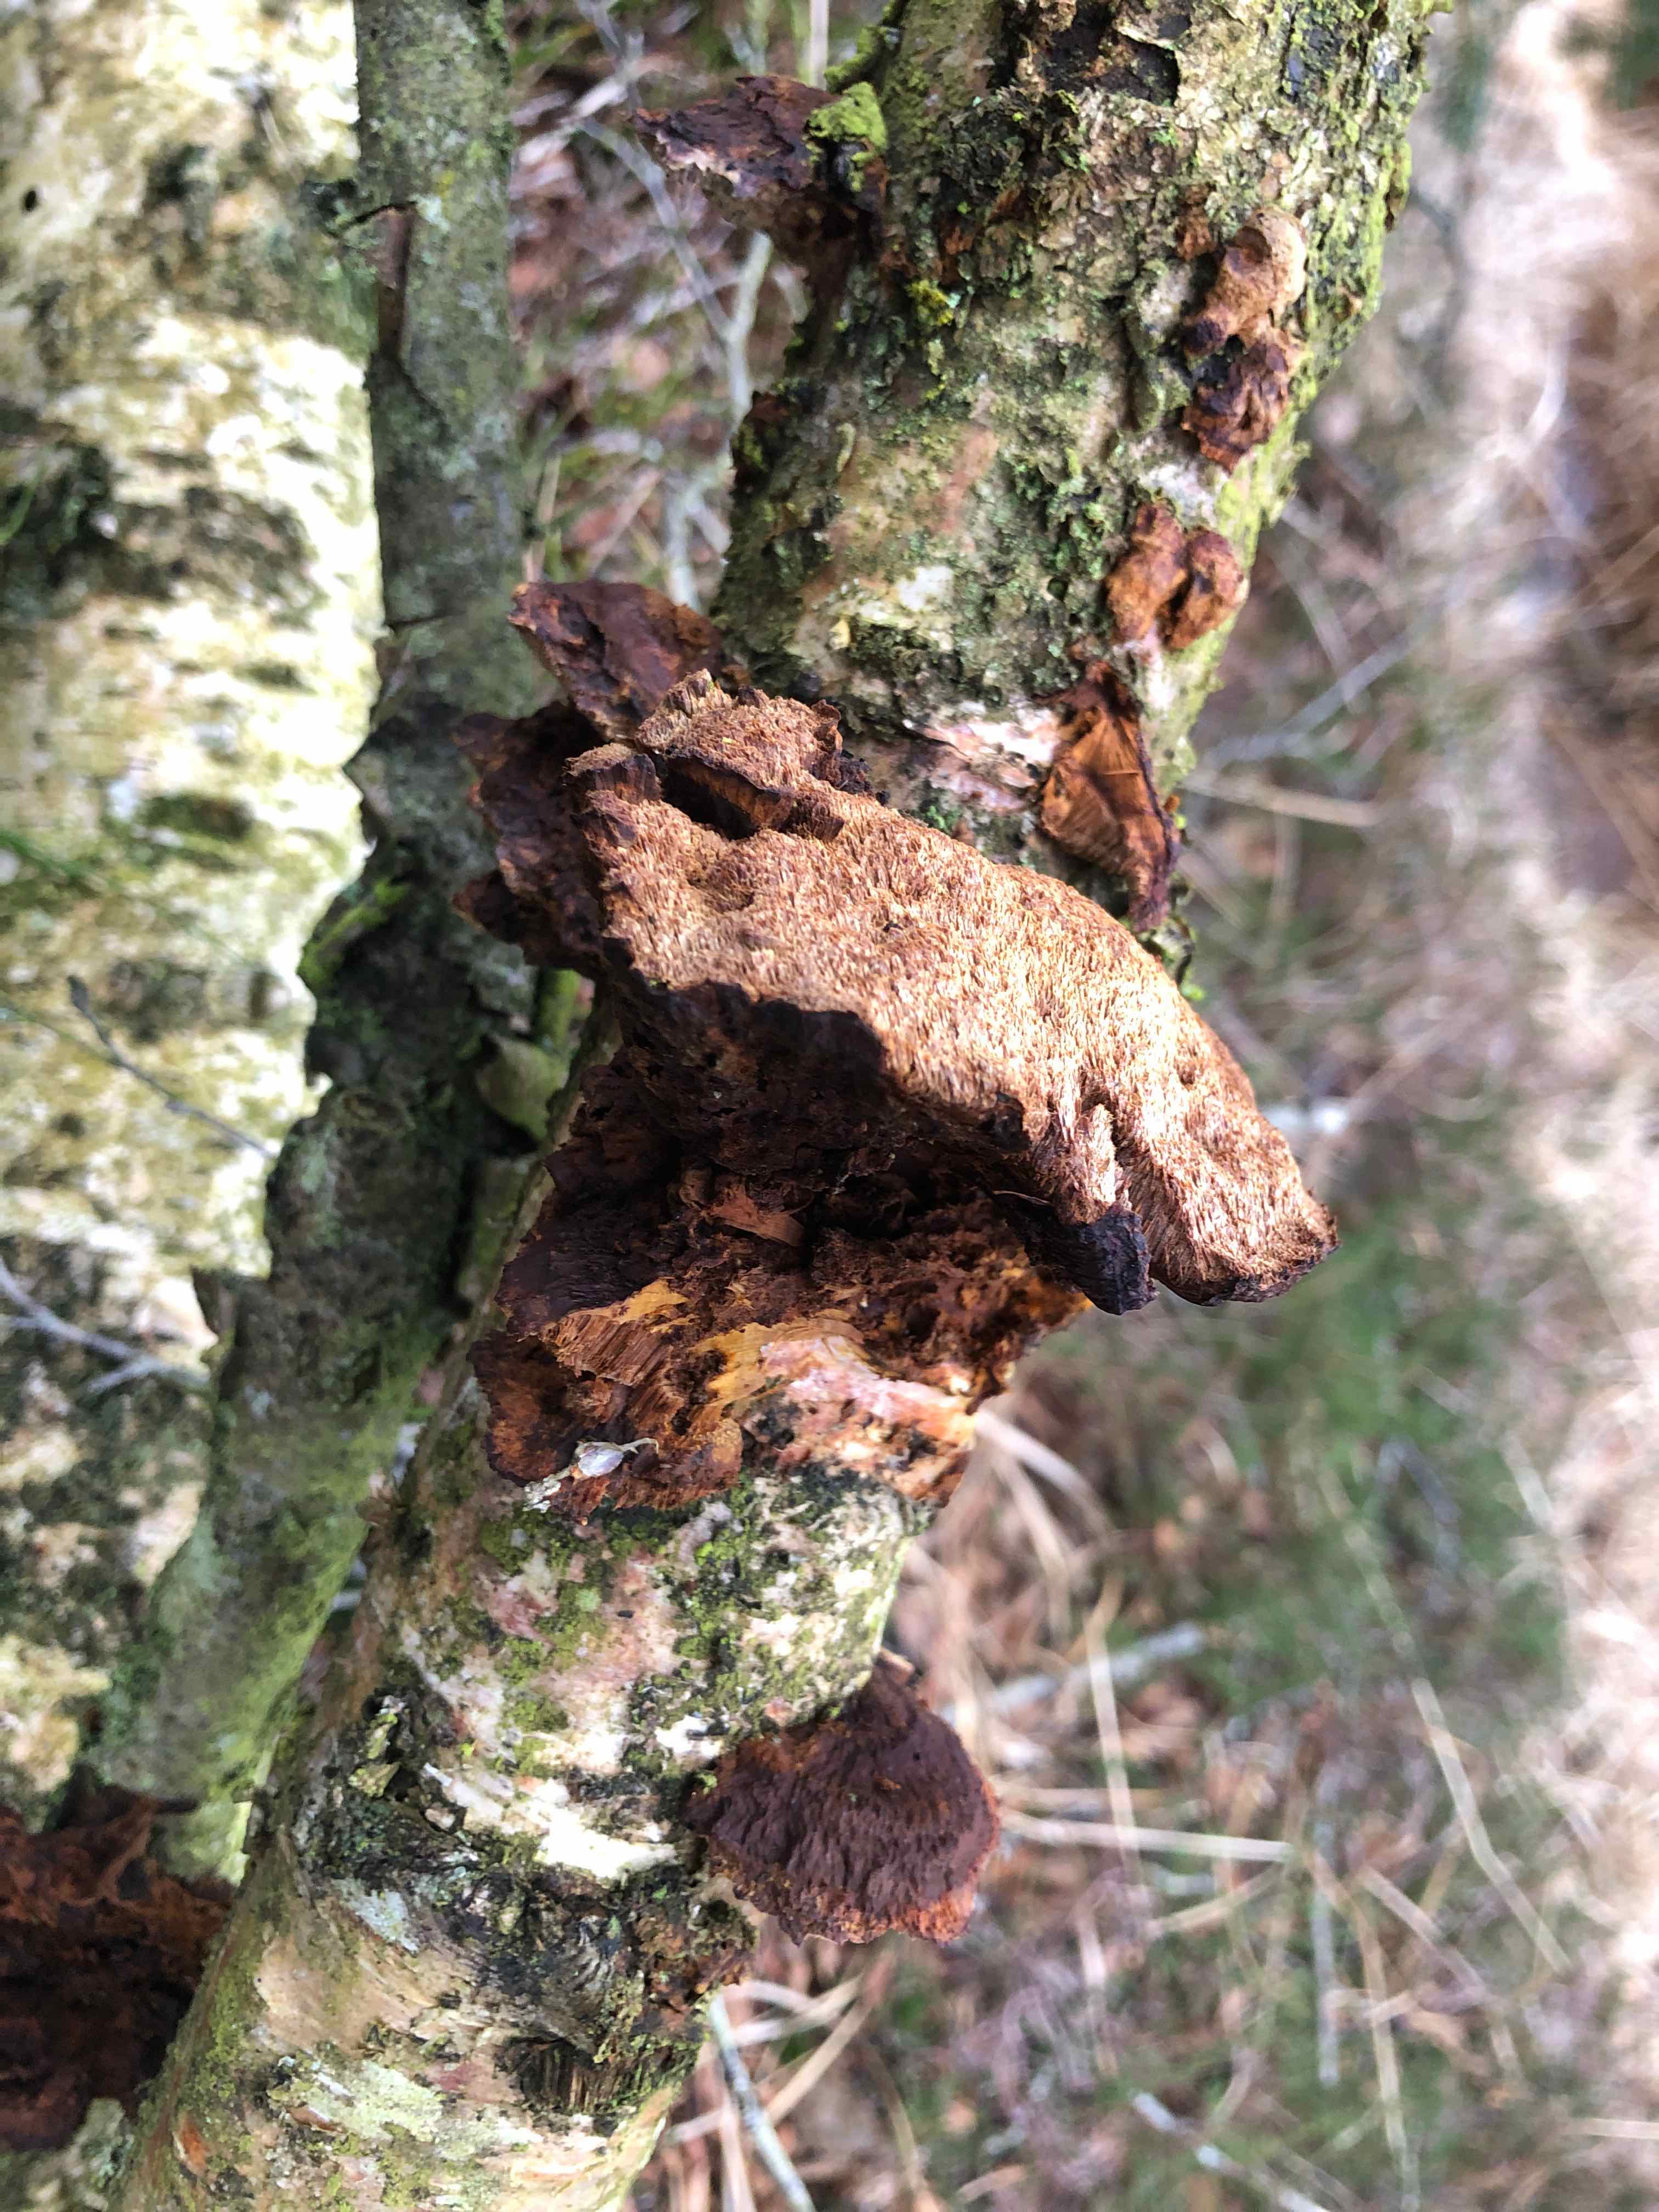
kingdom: Fungi
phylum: Basidiomycota
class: Agaricomycetes
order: Hymenochaetales
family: Hymenochaetaceae
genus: Xanthoporia
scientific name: Xanthoporia radiata
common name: elle-spejlporesvamp
